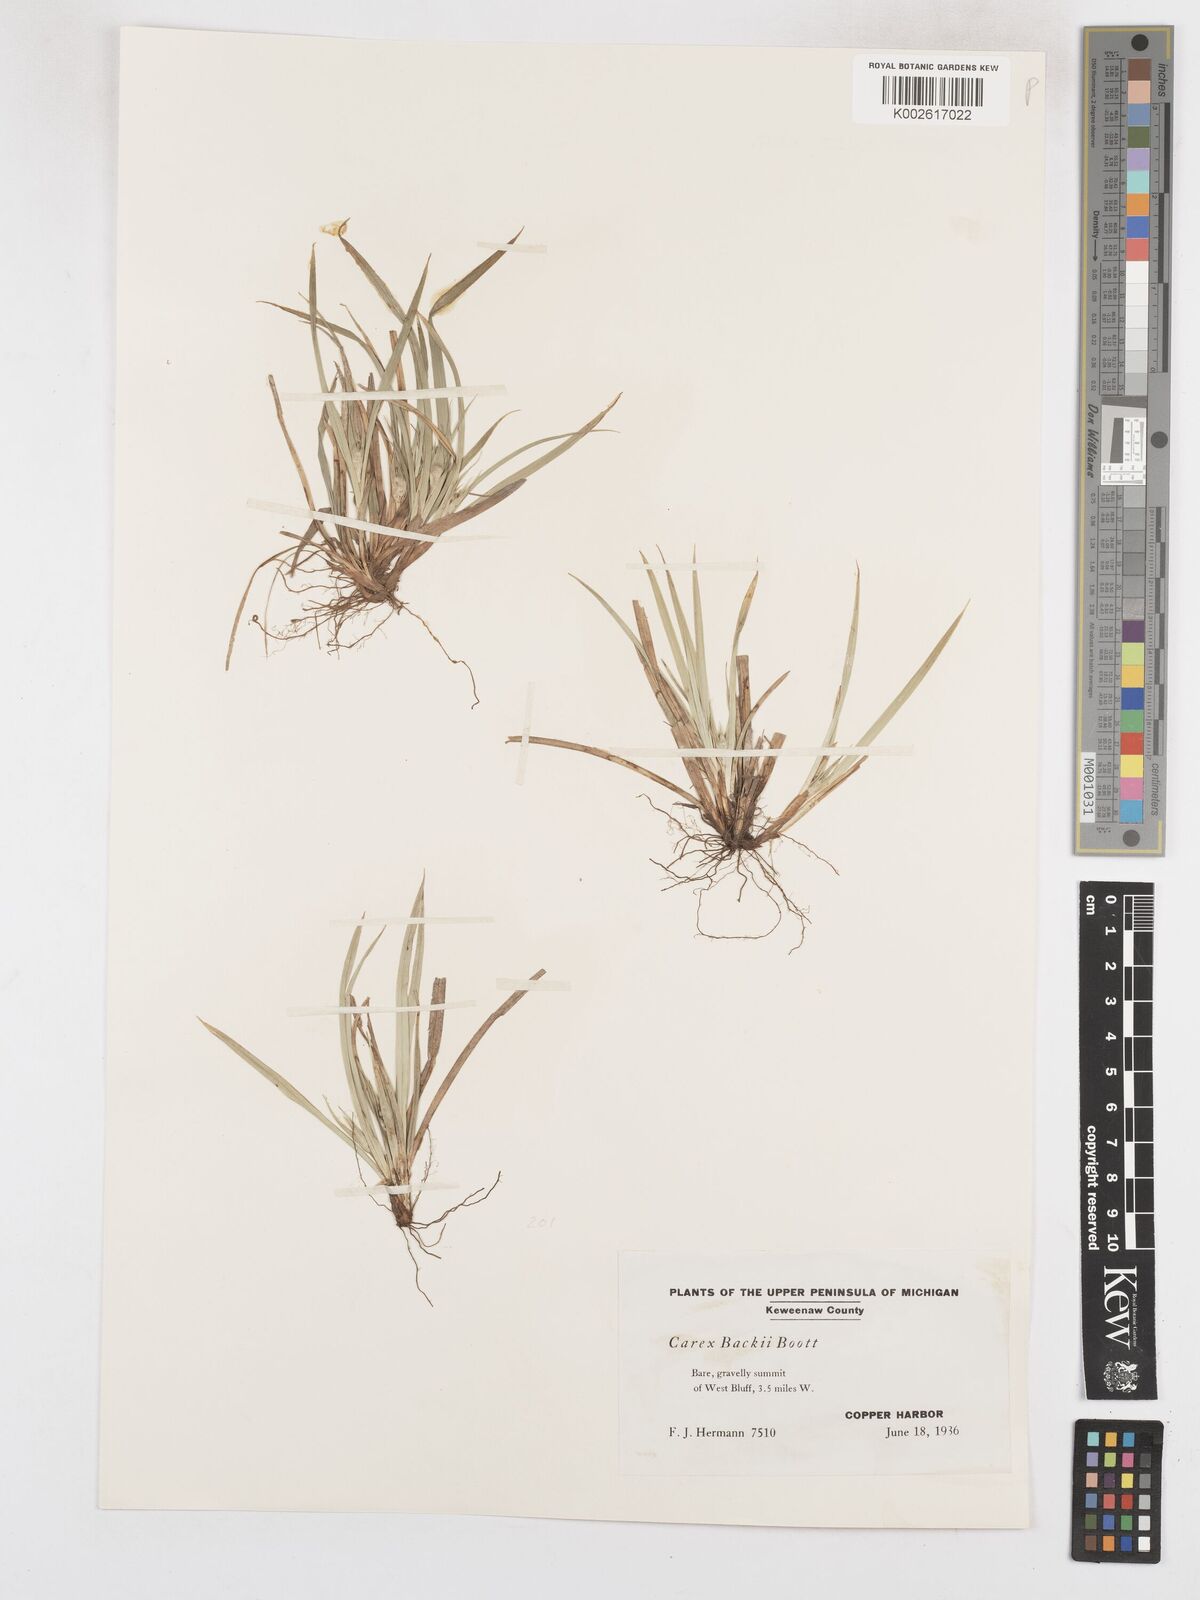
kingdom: Plantae
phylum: Tracheophyta
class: Liliopsida
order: Poales
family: Cyperaceae
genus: Carex
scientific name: Carex backii
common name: Back's sedge
